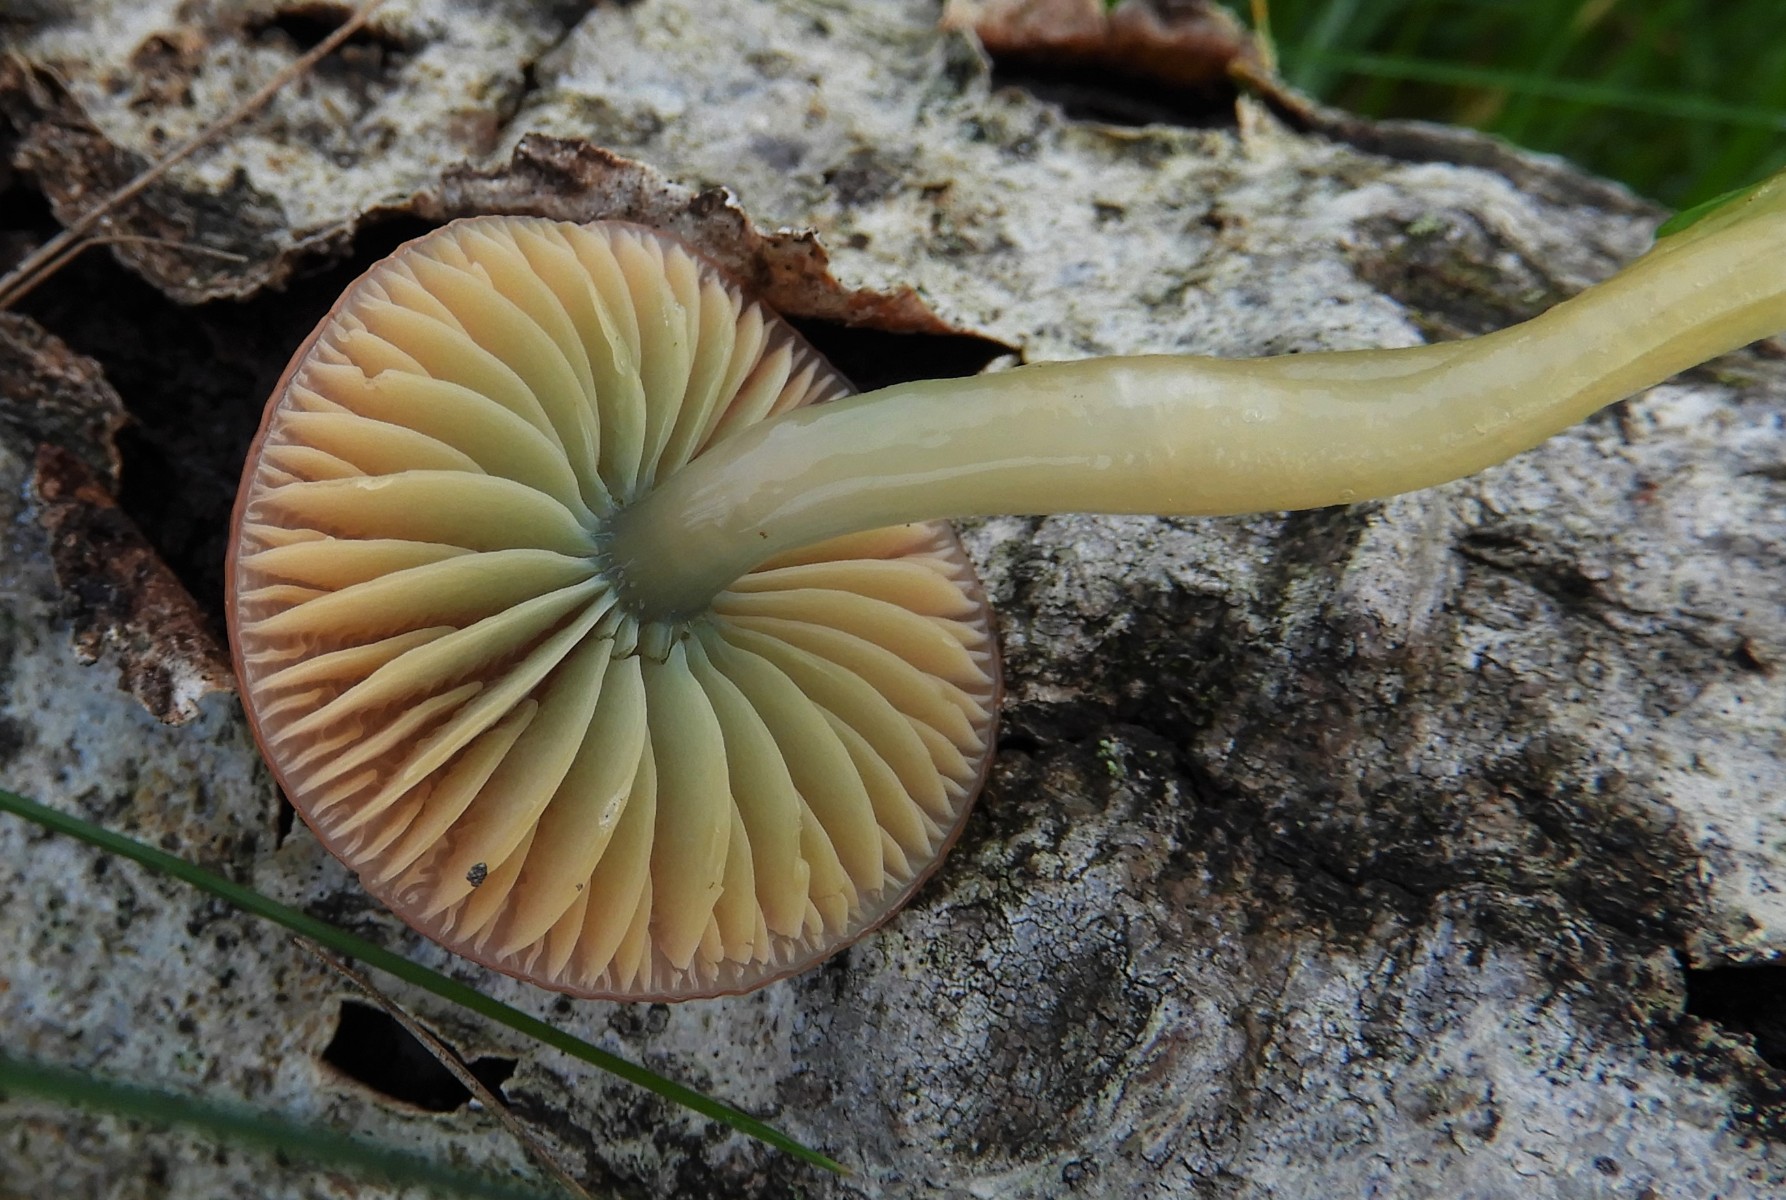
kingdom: Fungi
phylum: Basidiomycota
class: Agaricomycetes
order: Agaricales
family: Hygrophoraceae
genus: Gliophorus
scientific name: Gliophorus psittacinus
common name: papegøje-vokshat
